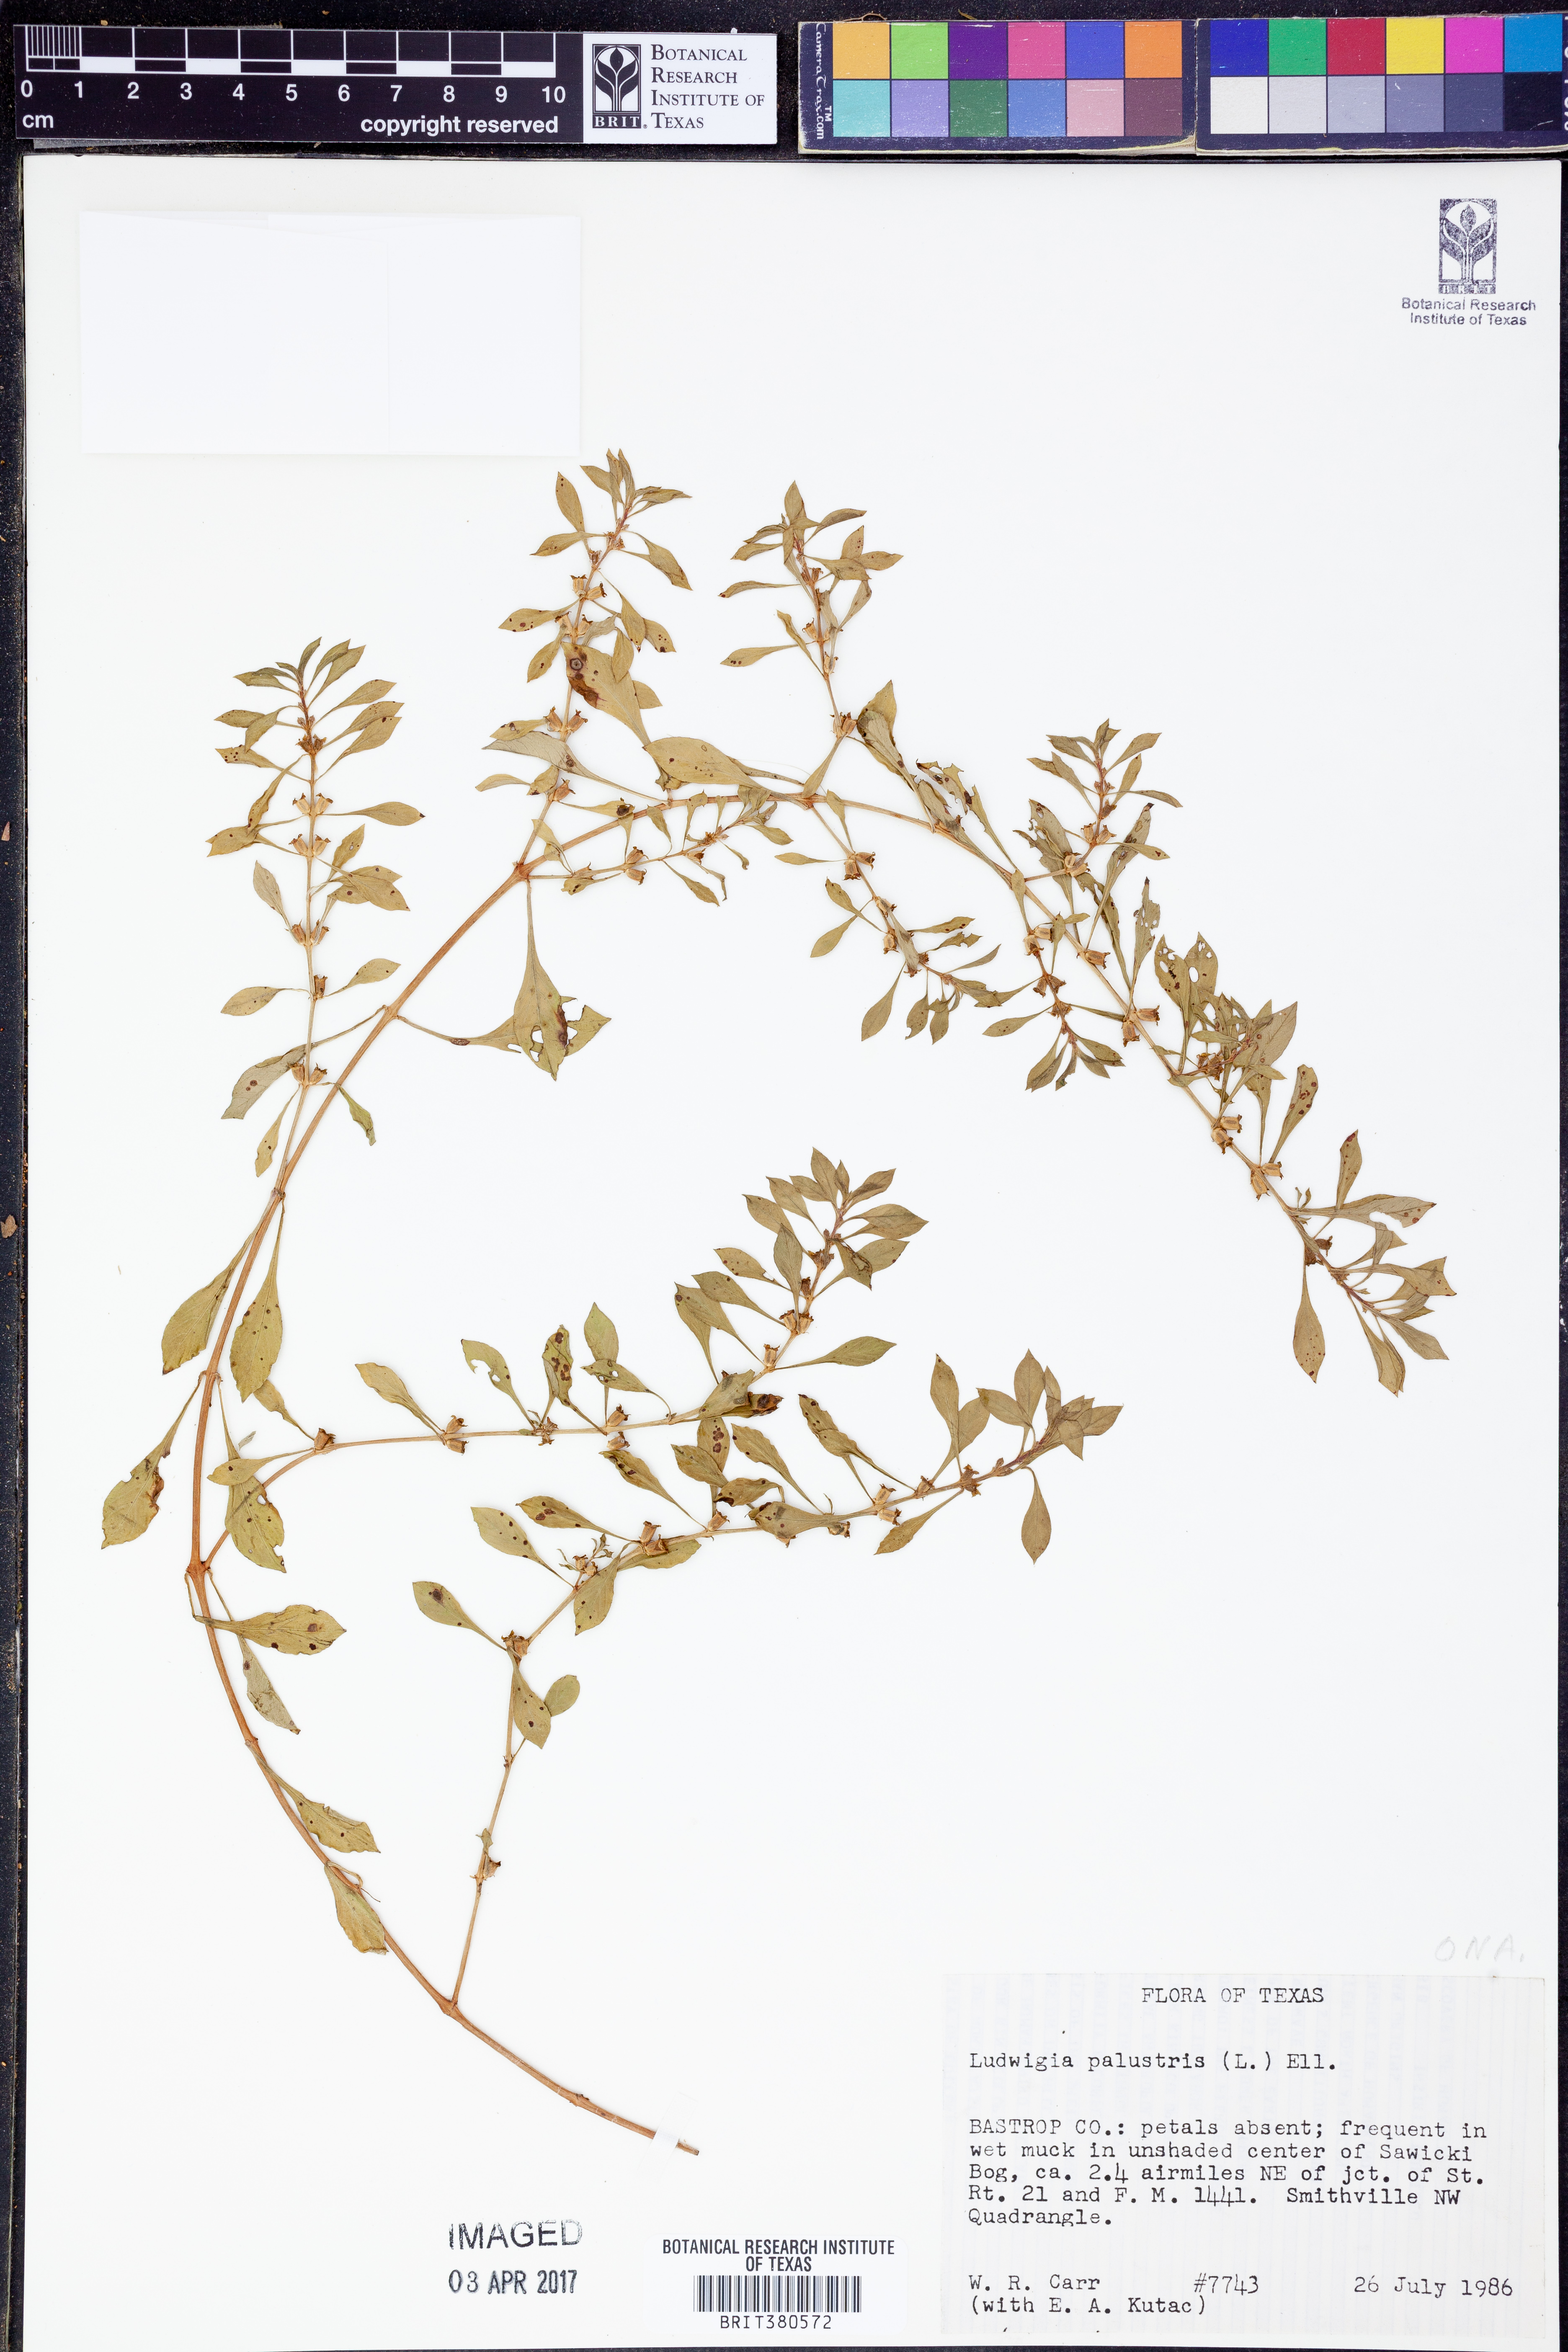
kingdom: Plantae
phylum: Tracheophyta
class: Magnoliopsida
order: Myrtales
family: Onagraceae
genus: Ludwigia
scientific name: Ludwigia palustris
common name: Hampshire-purslane
